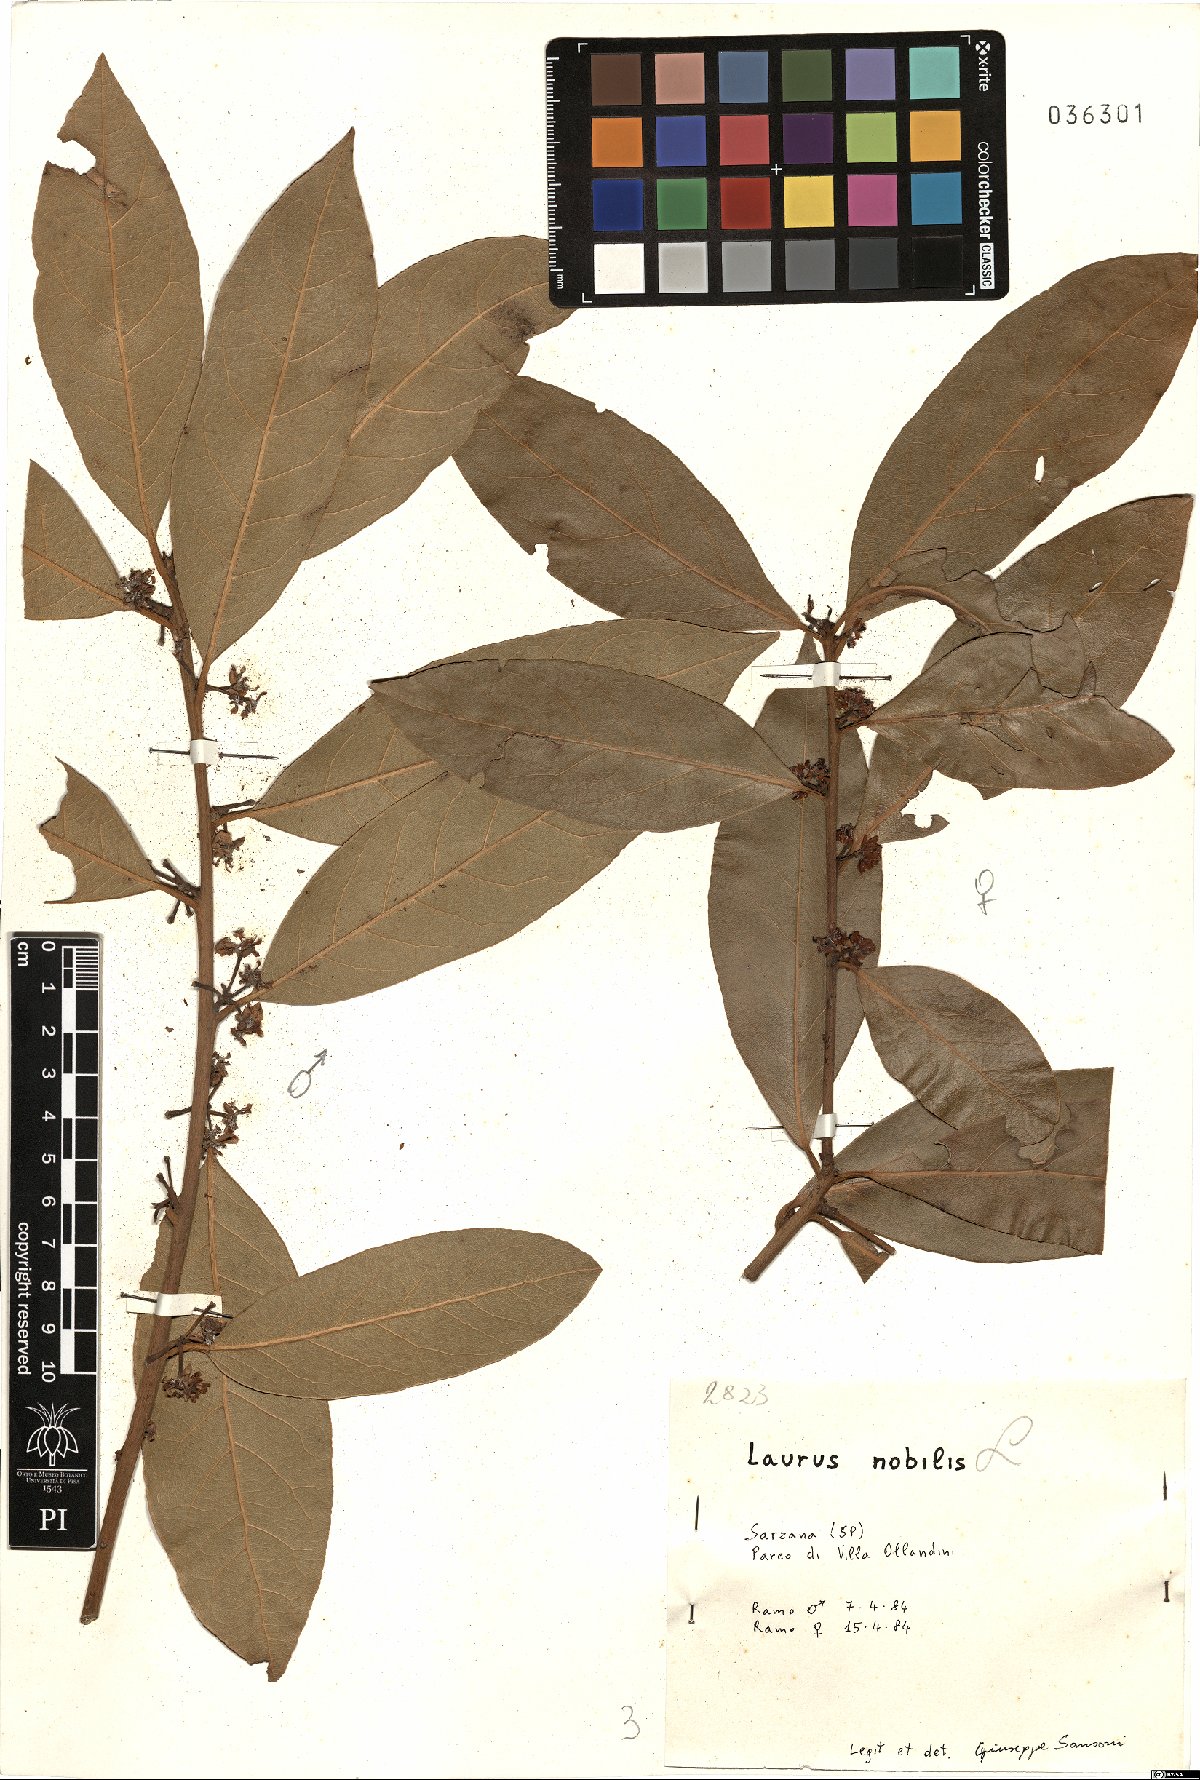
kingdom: Plantae
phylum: Tracheophyta
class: Magnoliopsida
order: Laurales
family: Lauraceae
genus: Laurus
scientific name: Laurus nobilis
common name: Bay
